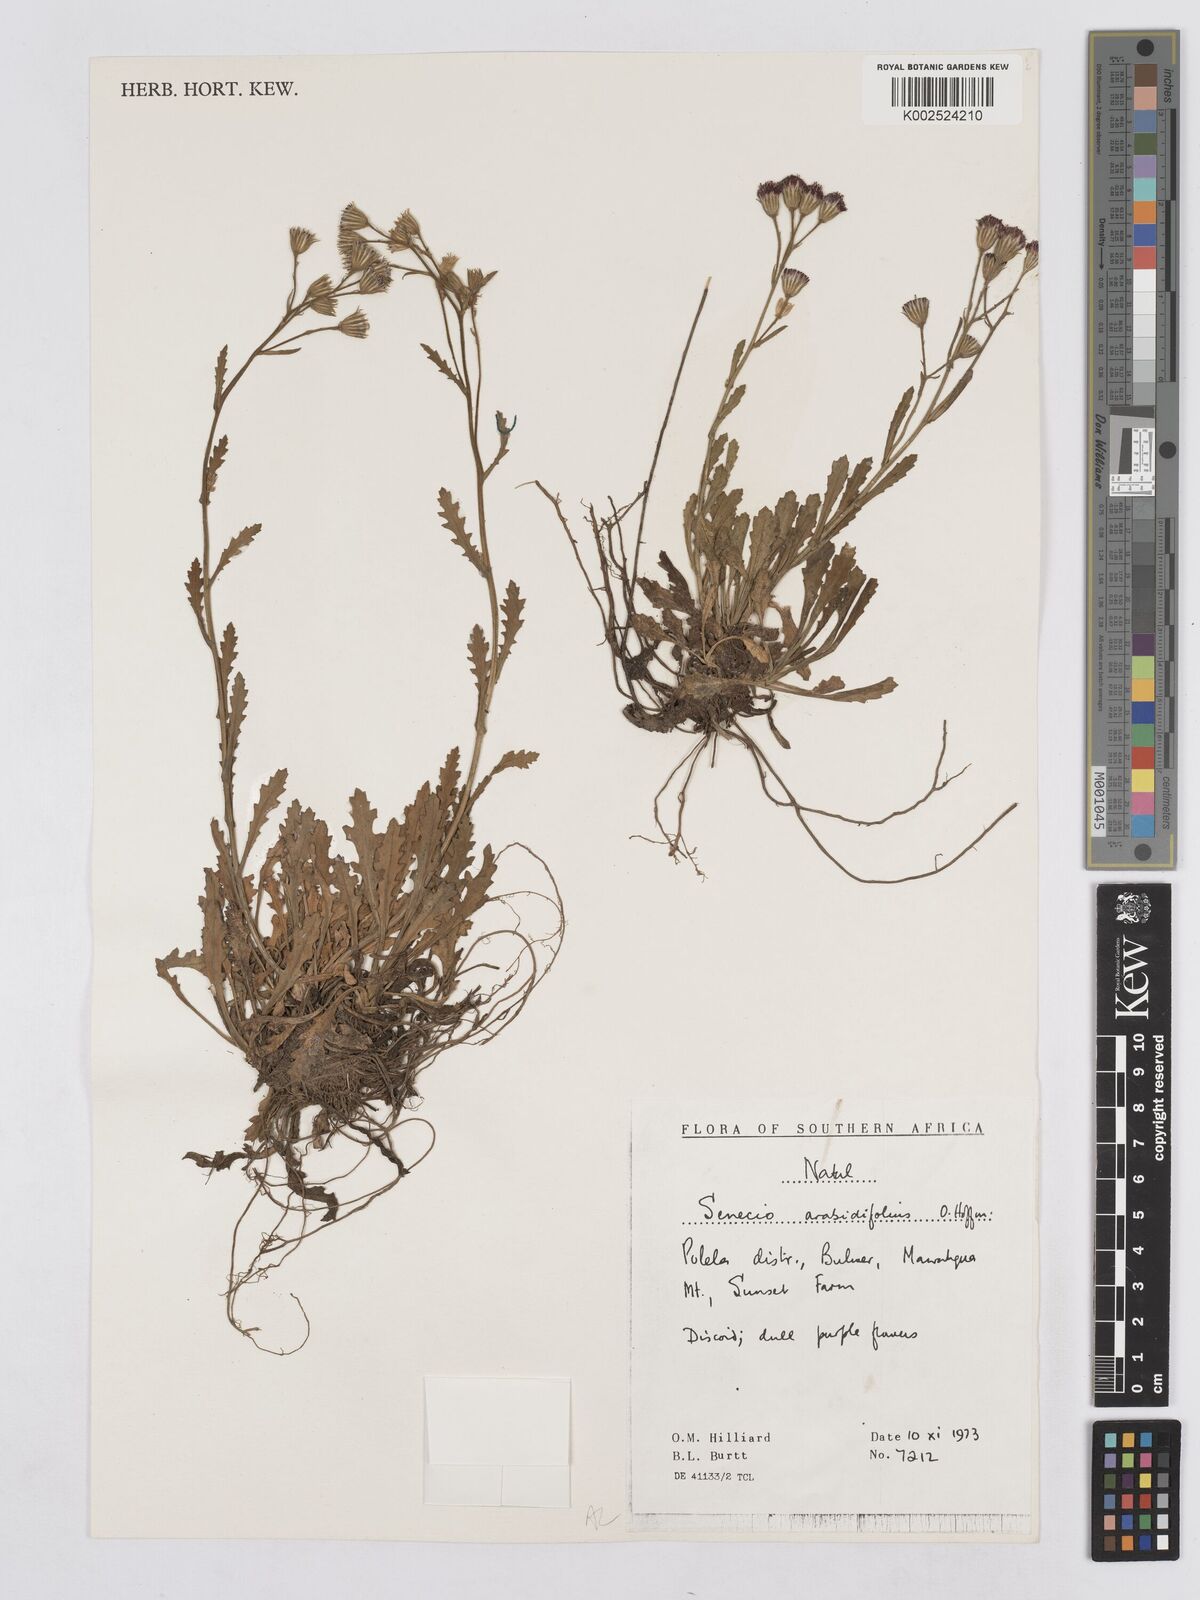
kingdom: Plantae
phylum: Tracheophyta
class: Magnoliopsida
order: Asterales
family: Asteraceae
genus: Senecio
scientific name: Senecio arabidifolius
